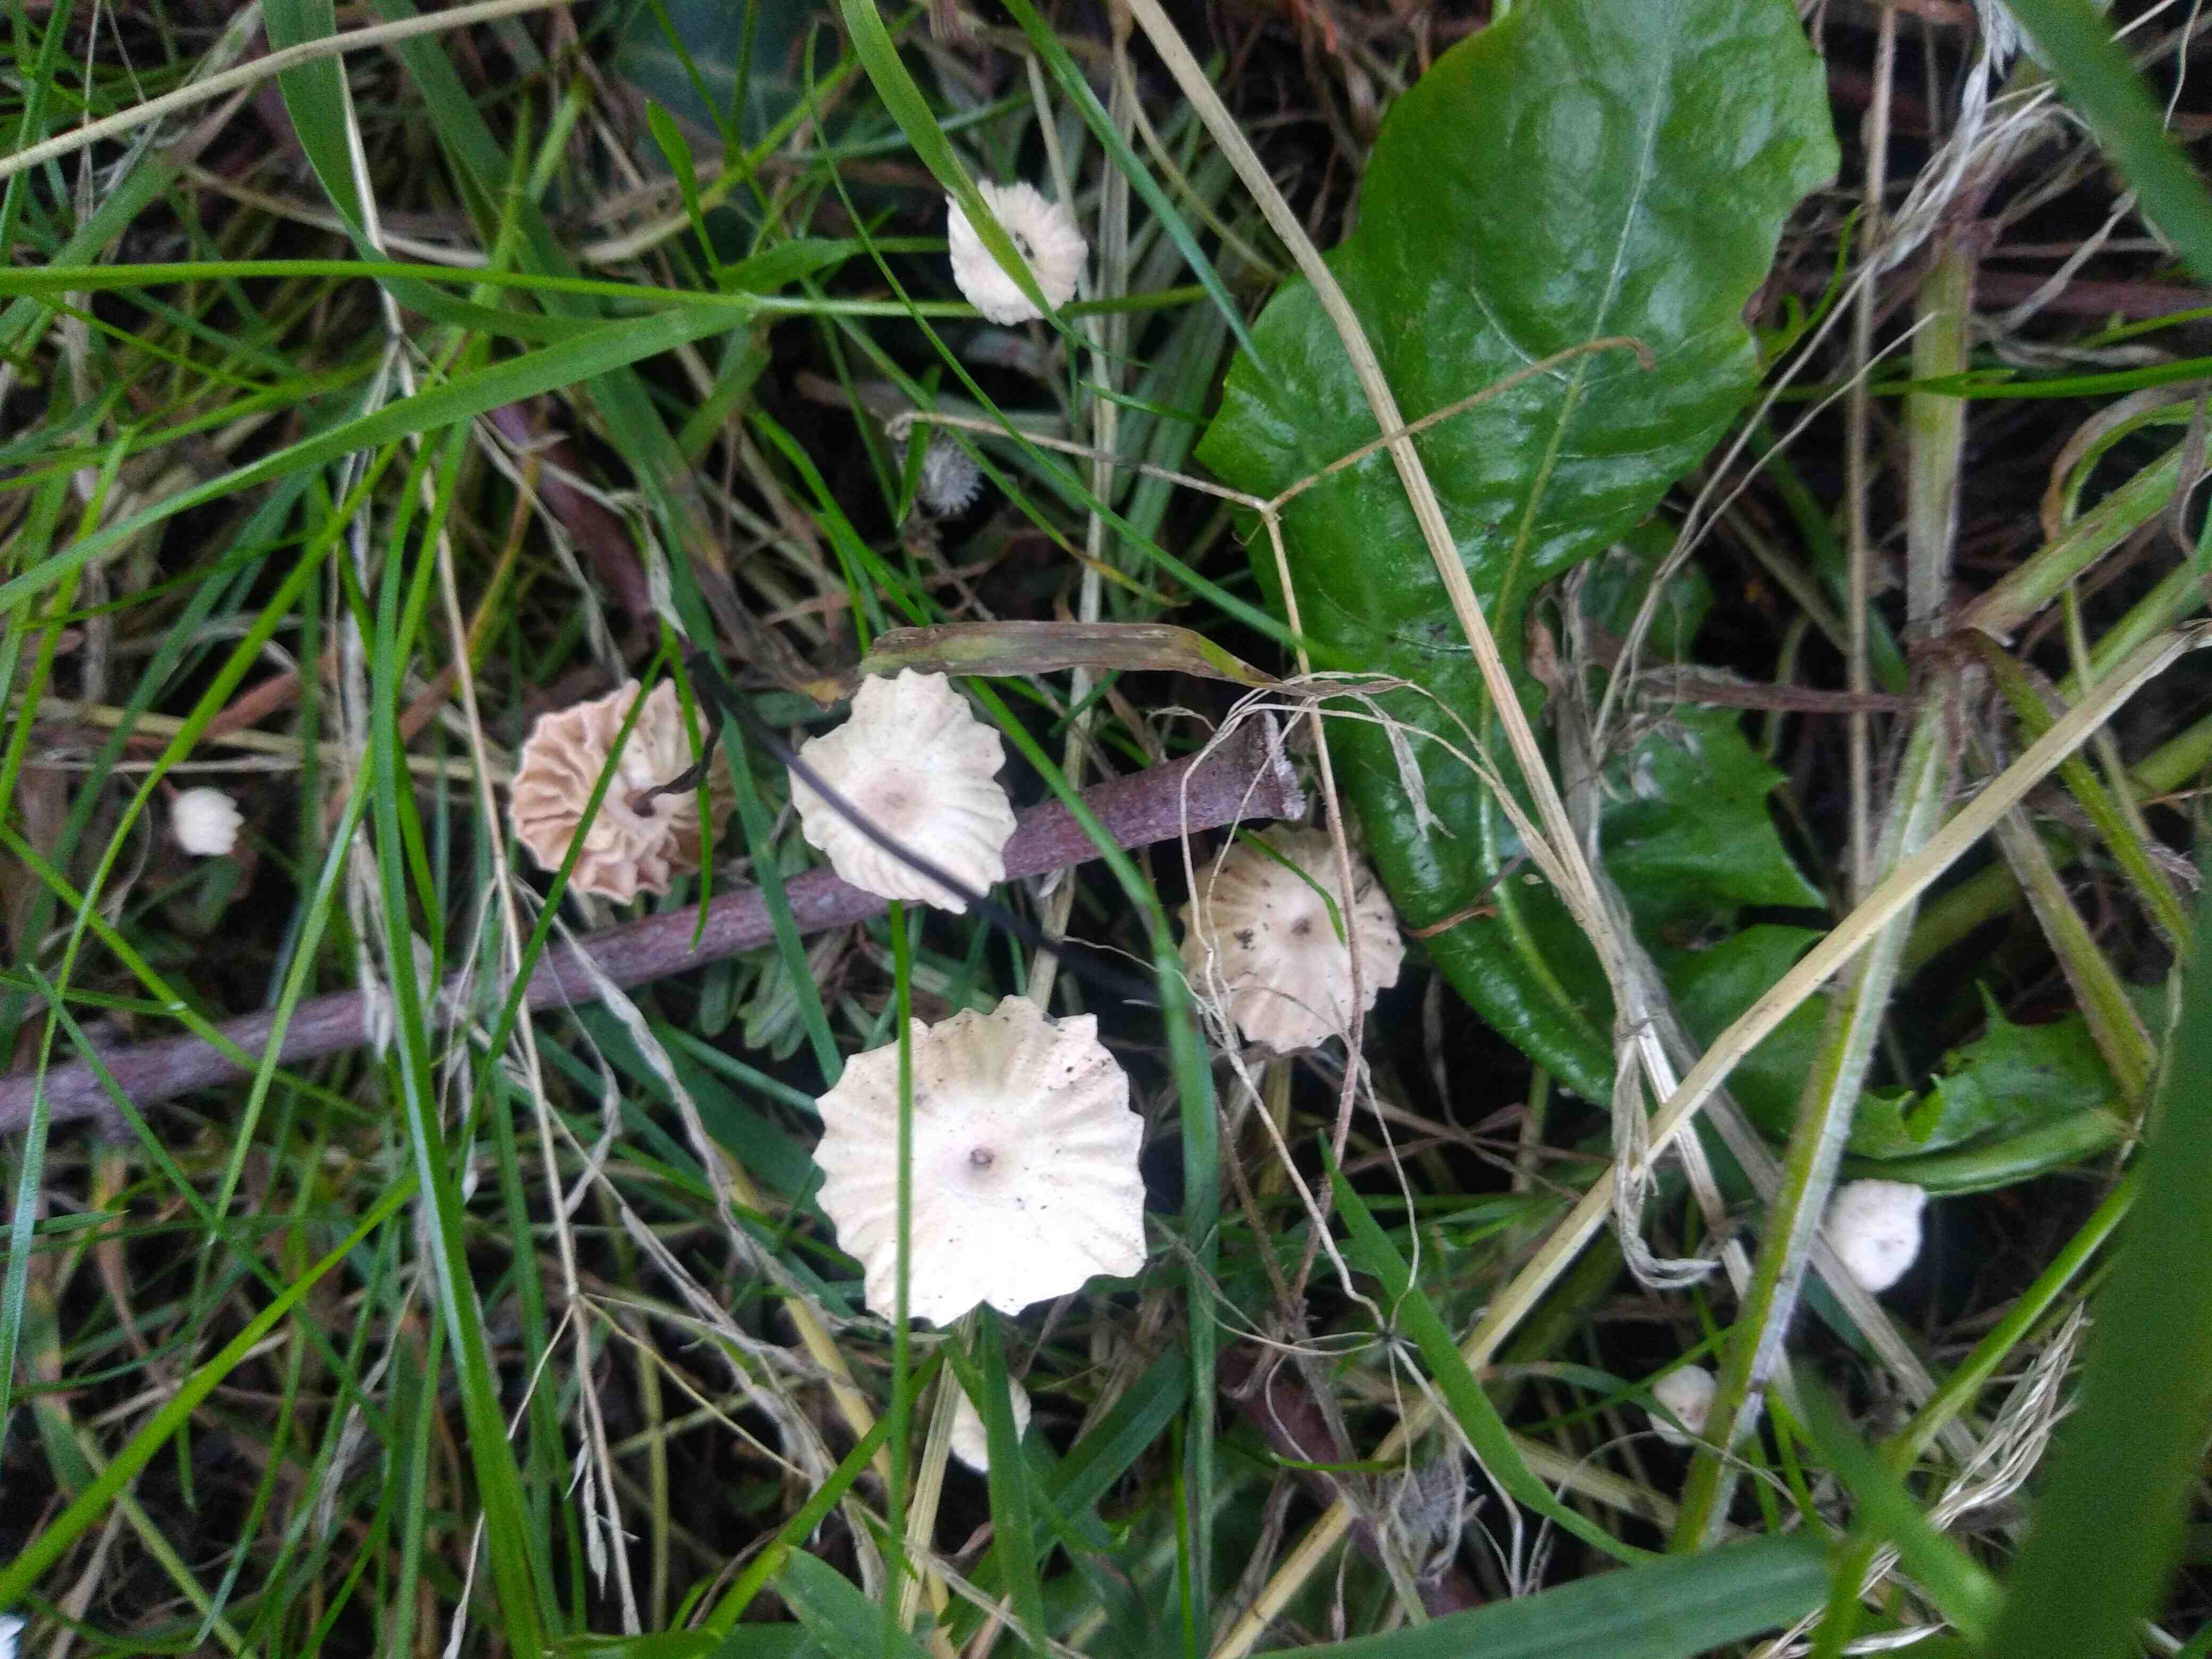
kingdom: Fungi
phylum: Basidiomycota
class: Agaricomycetes
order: Agaricales
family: Marasmiaceae
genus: Marasmius
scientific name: Marasmius rotula
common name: hjul-bruskhat
